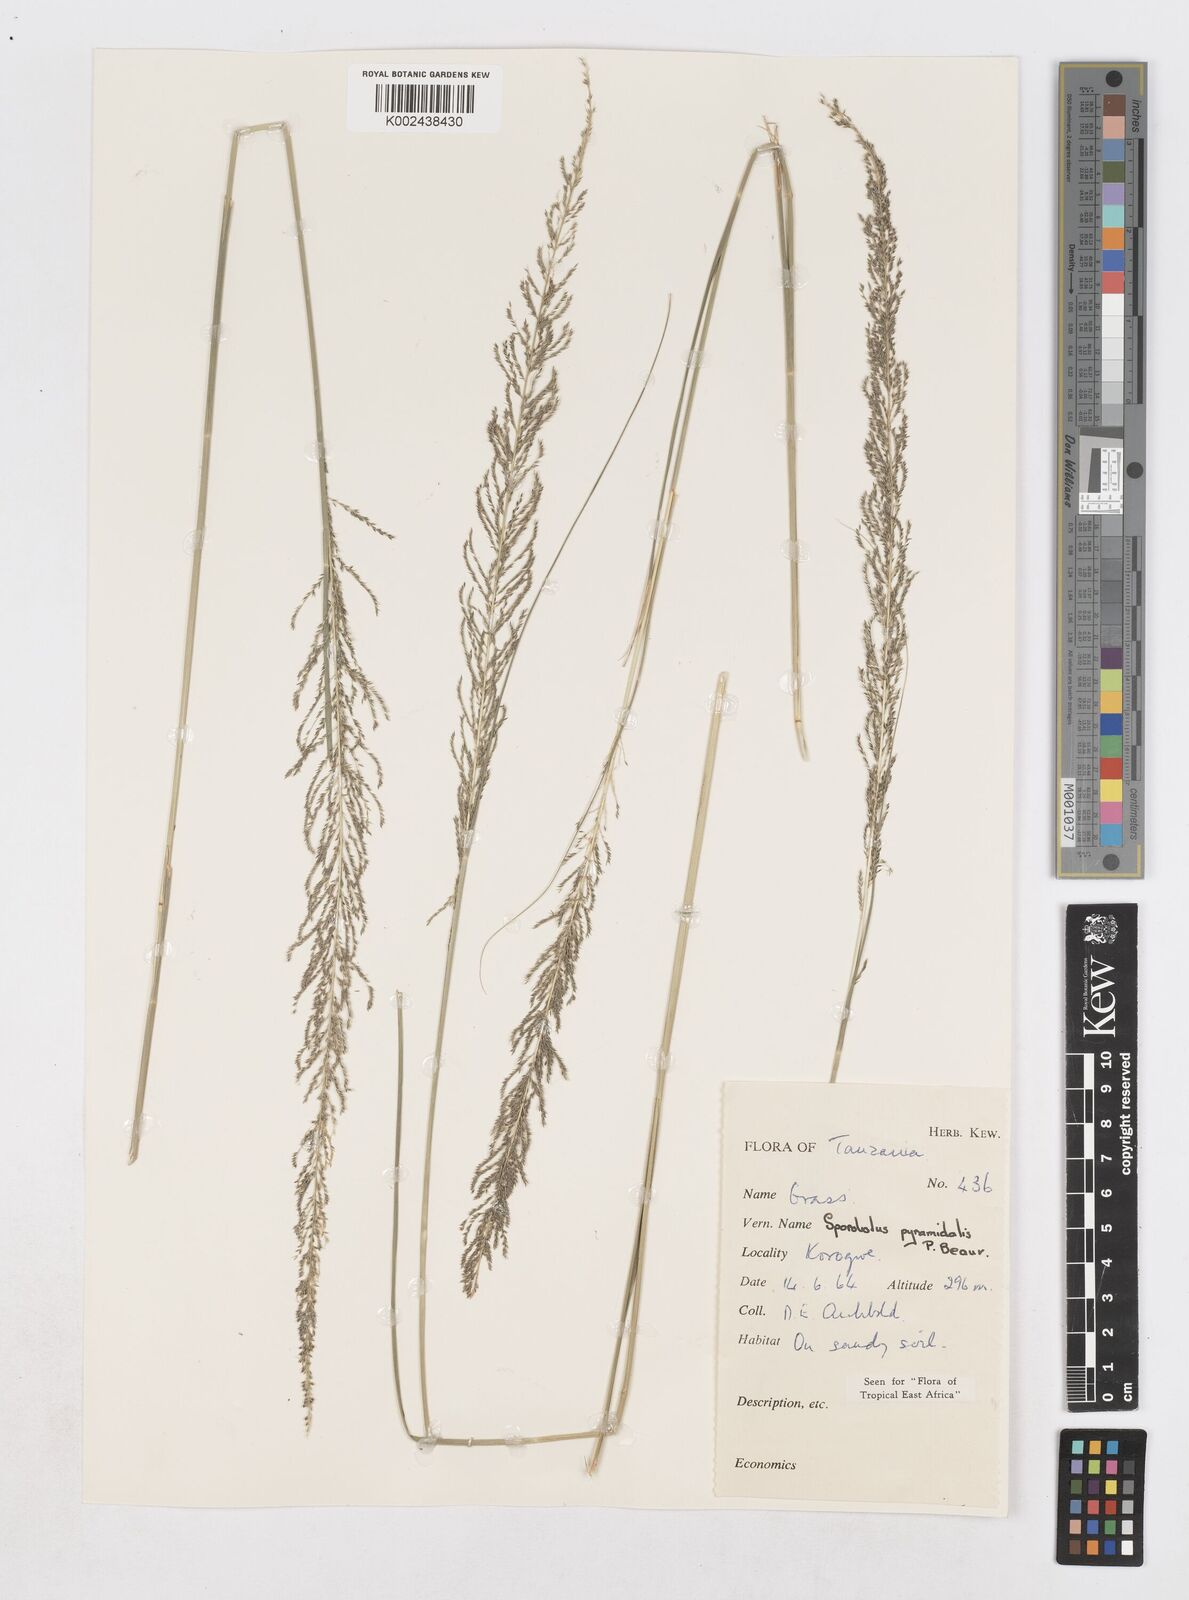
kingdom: Plantae
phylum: Tracheophyta
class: Liliopsida
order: Poales
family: Poaceae
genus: Sporobolus
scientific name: Sporobolus pyramidalis
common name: West indian dropseed
